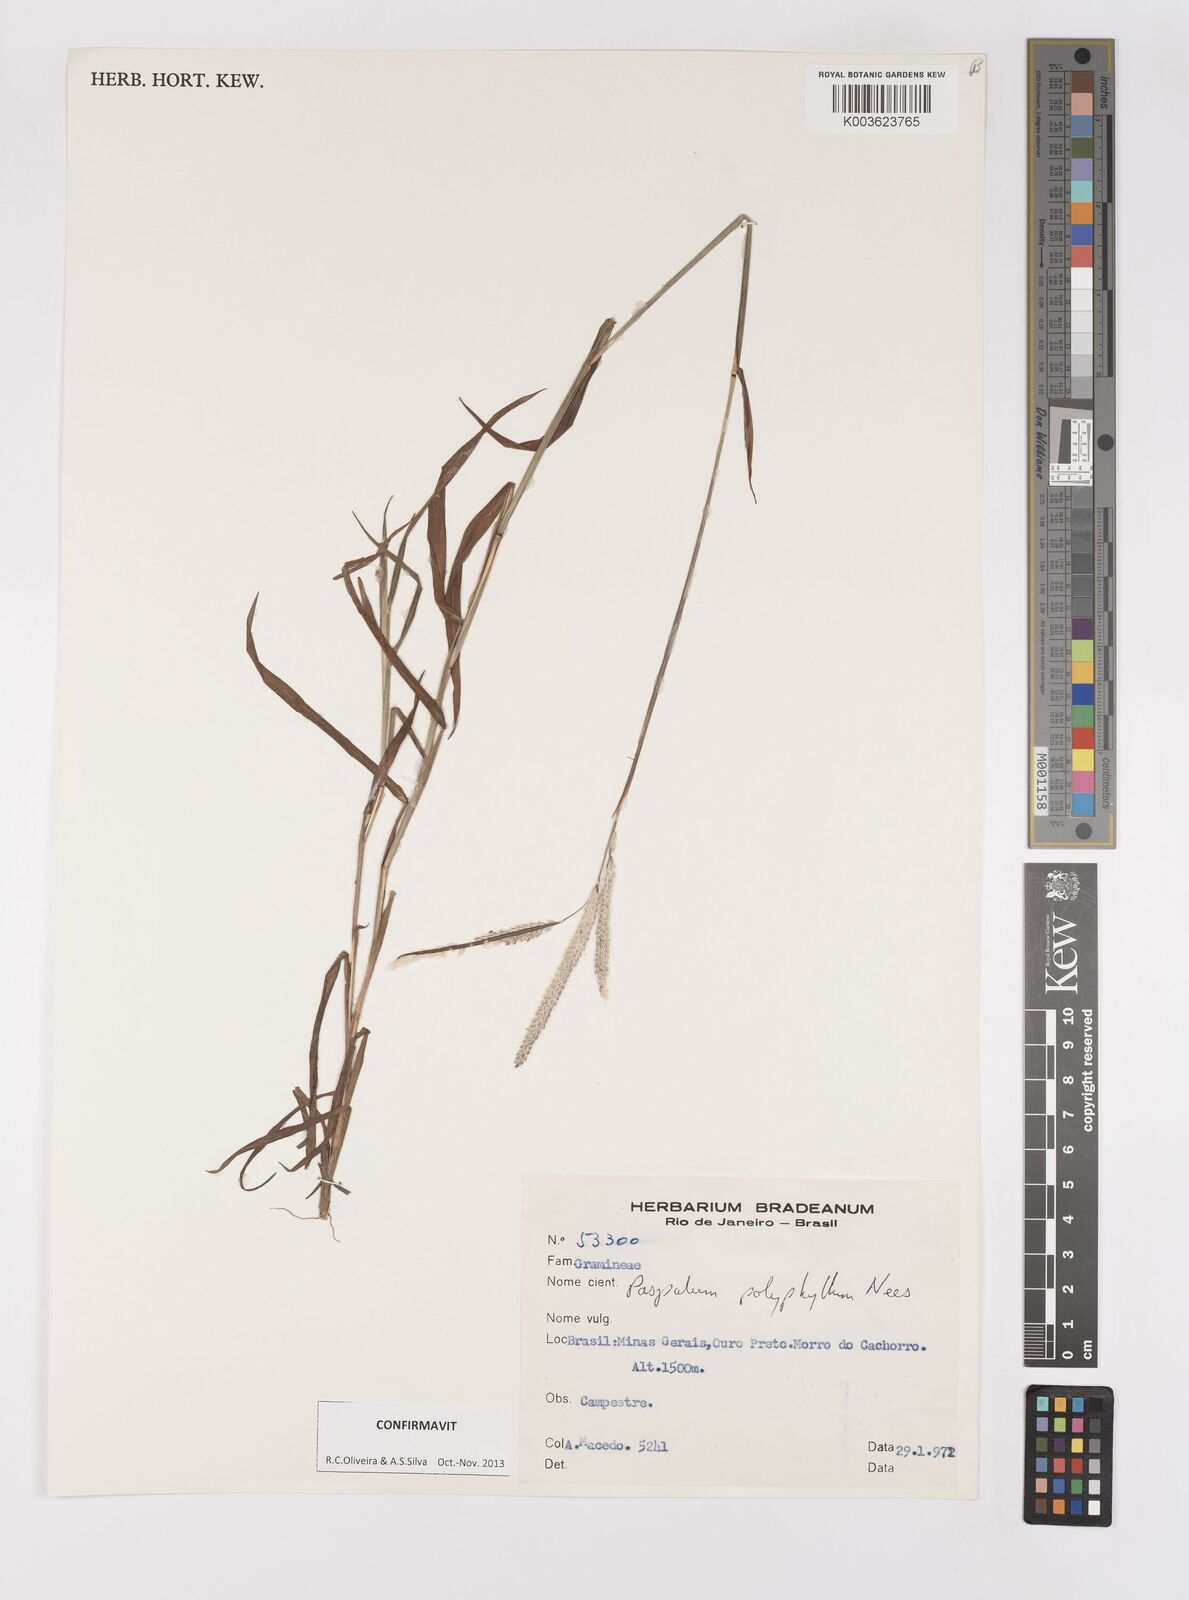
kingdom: Plantae
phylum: Tracheophyta
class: Liliopsida
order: Poales
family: Poaceae
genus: Paspalum
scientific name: Paspalum polyphyllum
